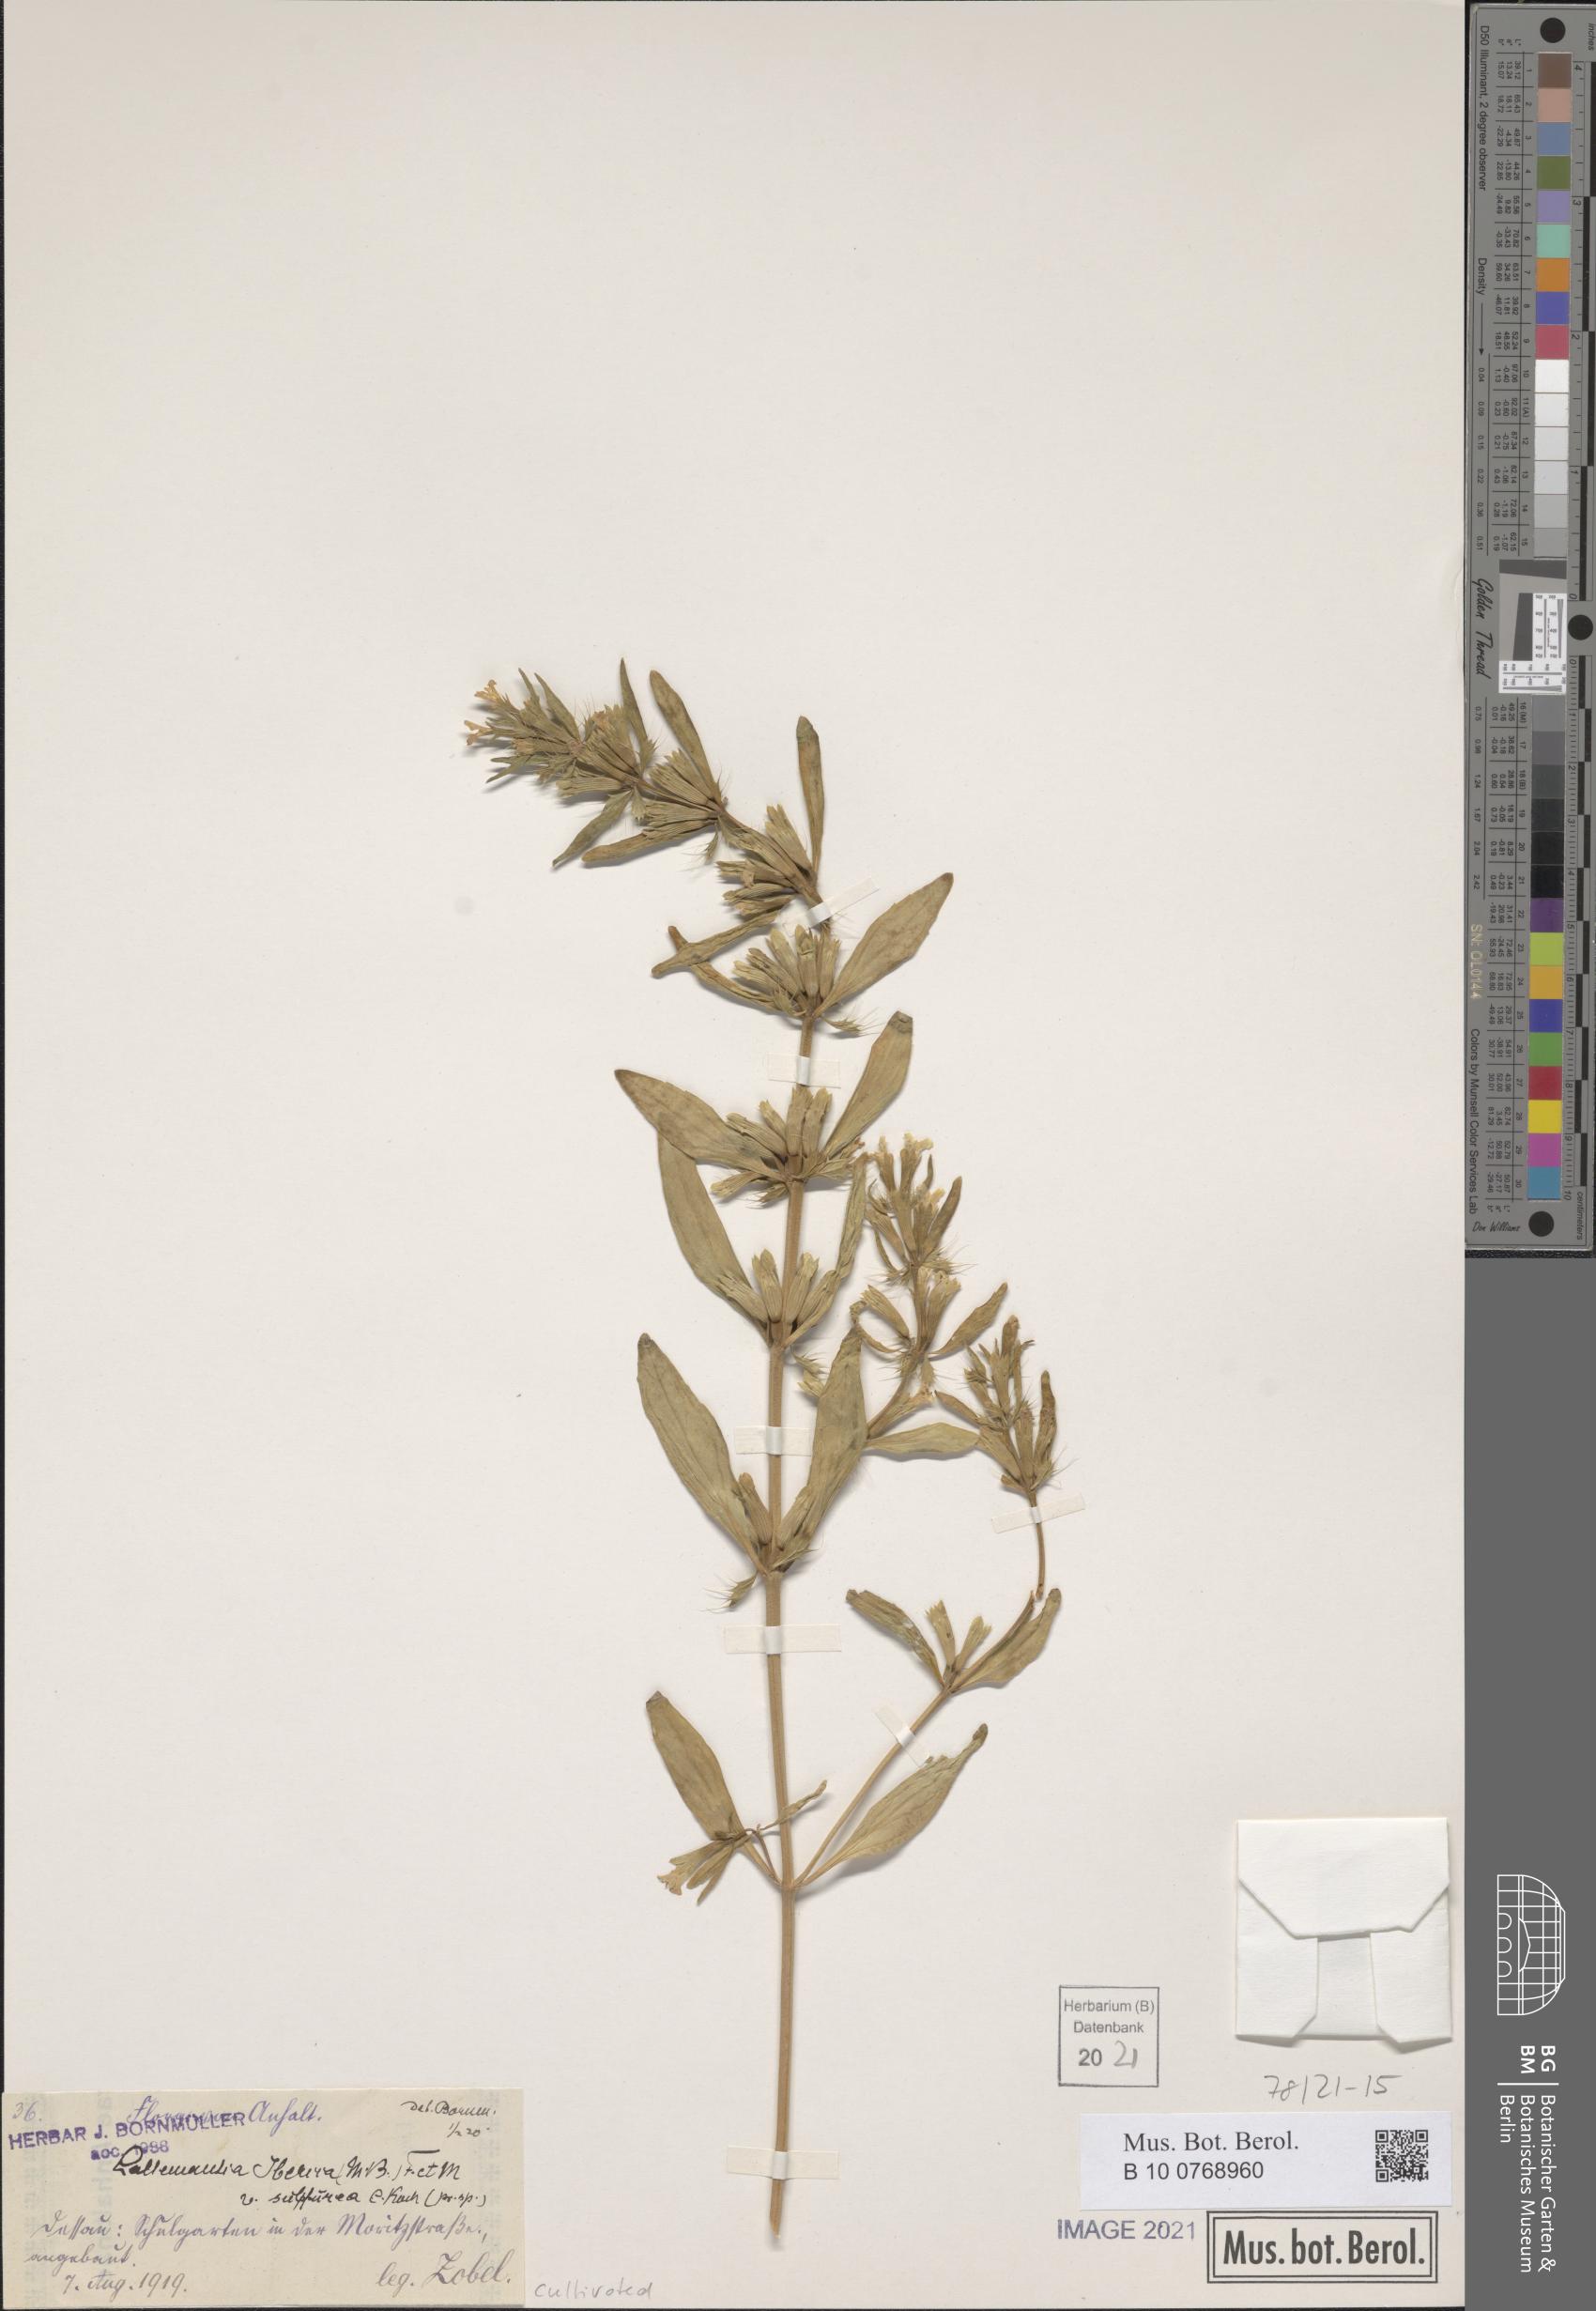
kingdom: Plantae
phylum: Tracheophyta
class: Magnoliopsida
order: Lamiales
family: Lamiaceae
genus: Lallemantia
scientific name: Lallemantia iberica
